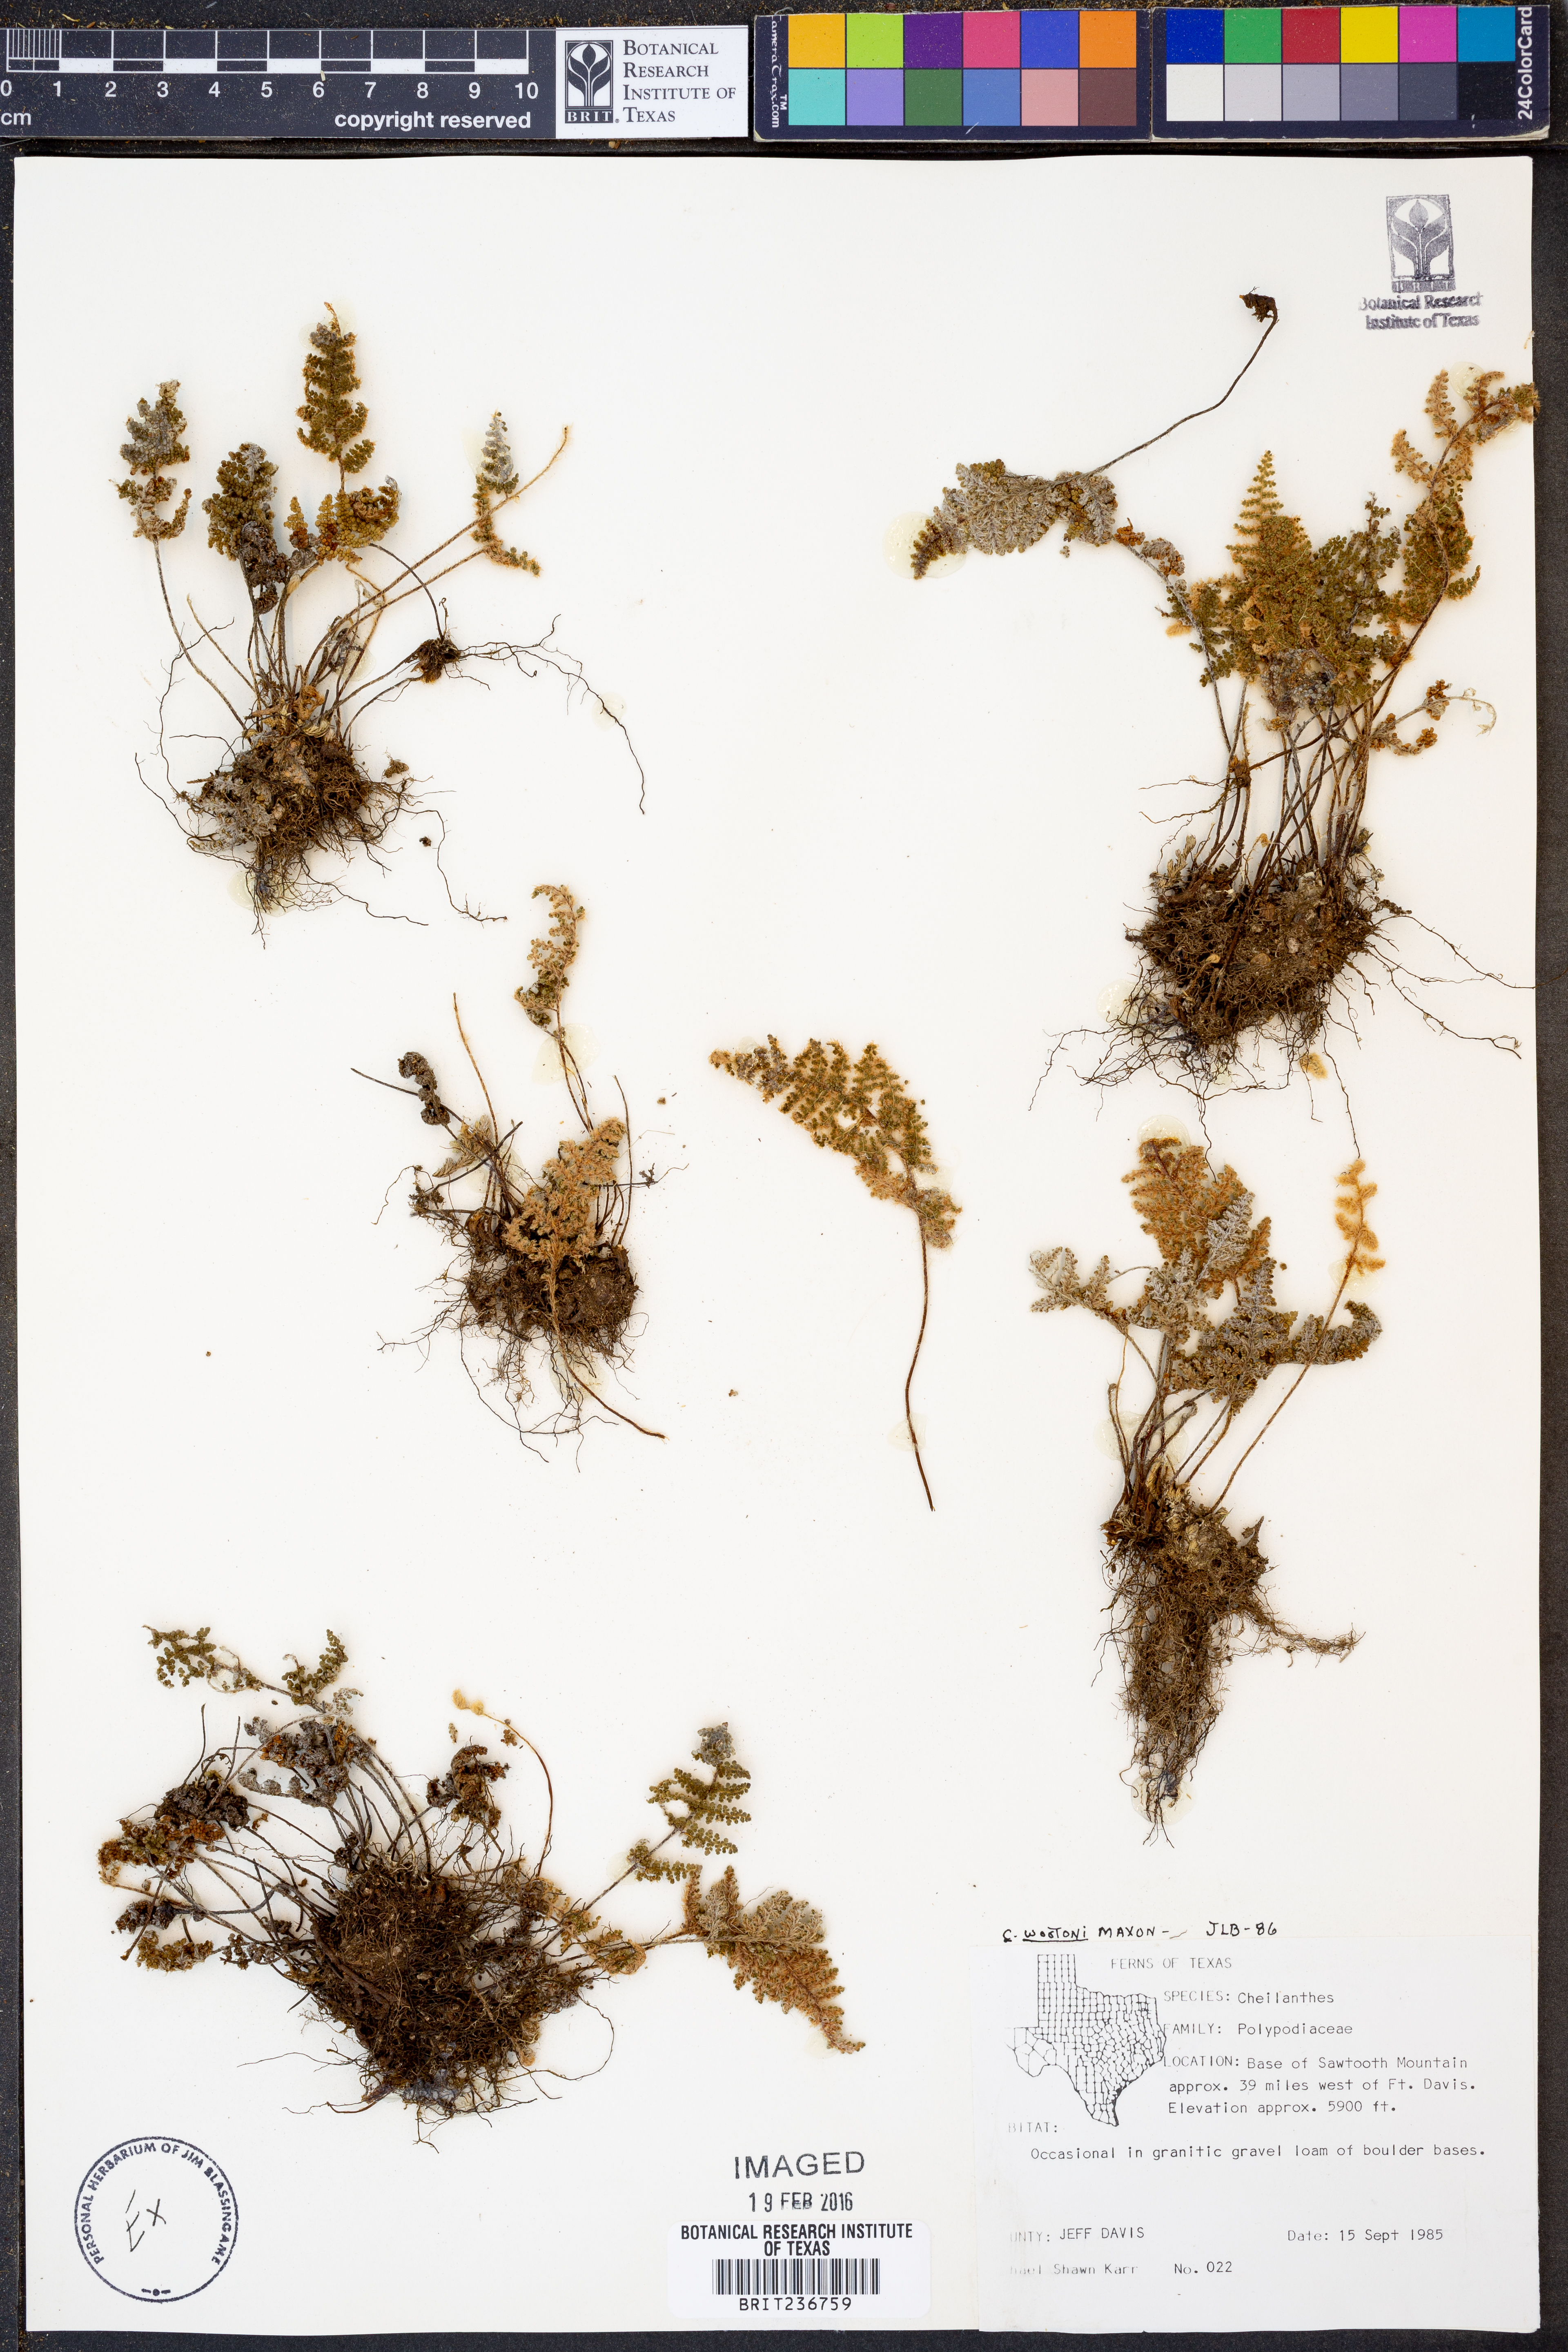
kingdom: Plantae
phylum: Tracheophyta
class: Polypodiopsida
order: Polypodiales
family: Pteridaceae
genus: Myriopteris
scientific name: Myriopteris wootonii
